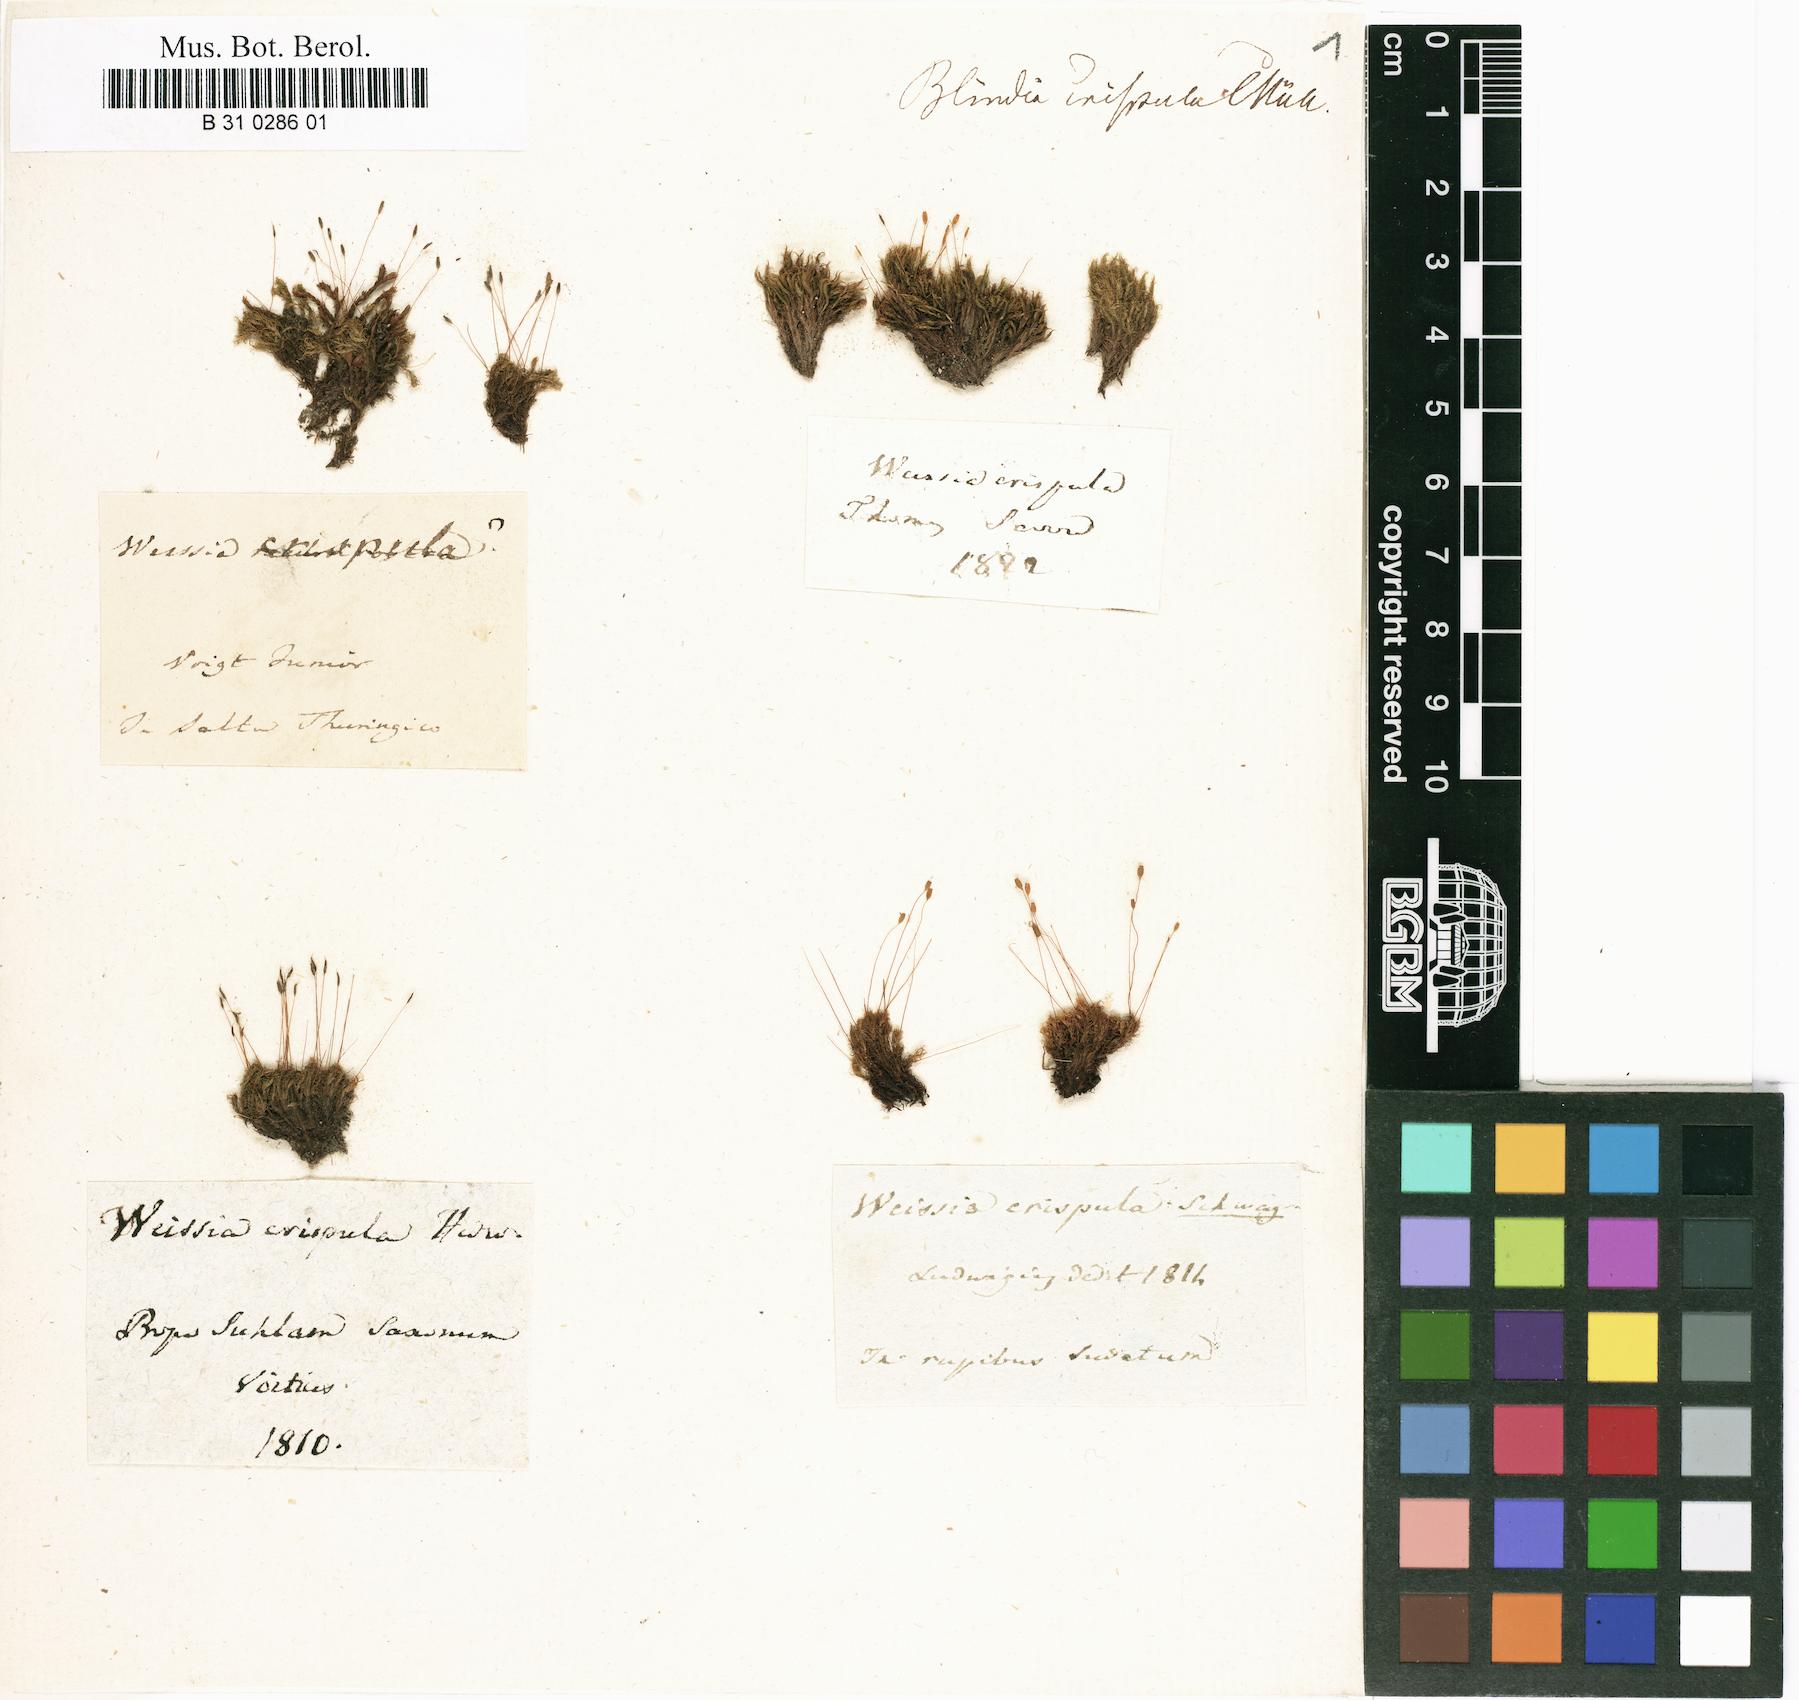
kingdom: Plantae
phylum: Bryophyta
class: Bryopsida
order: Orthotrichales
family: Orthotrichaceae
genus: Ulota
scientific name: Ulota crispula
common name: Crisped pincushion
